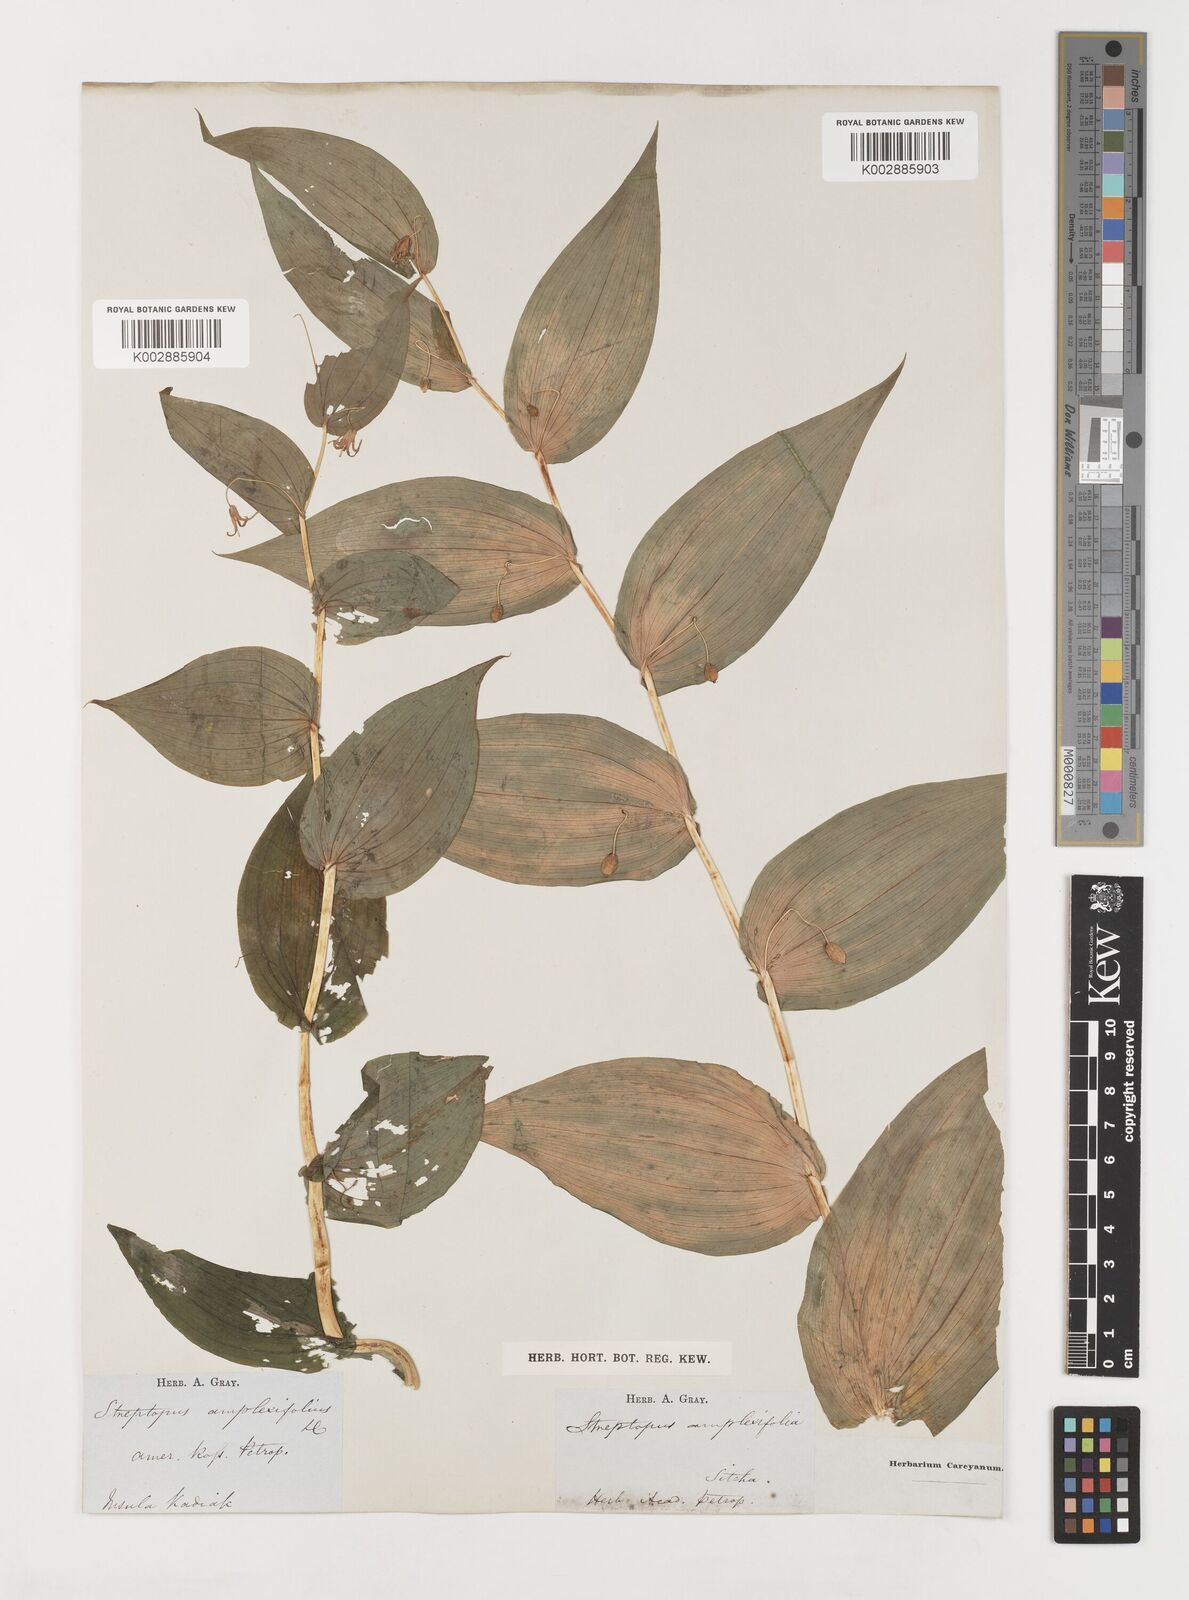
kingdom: Plantae
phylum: Tracheophyta
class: Liliopsida
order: Liliales
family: Liliaceae
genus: Streptopus
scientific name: Streptopus amplexifolius
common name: Clasp twisted stalk
